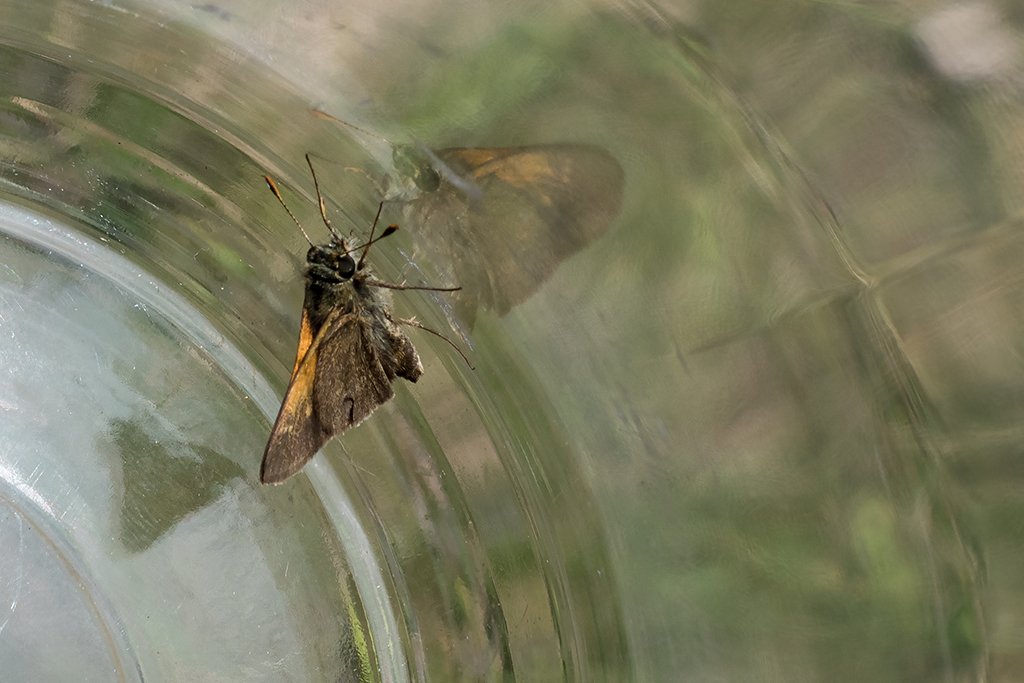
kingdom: Animalia
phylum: Arthropoda
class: Insecta
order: Lepidoptera
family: Hesperiidae
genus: Polites
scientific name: Polites themistocles
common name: Tawny-edged Skipper
